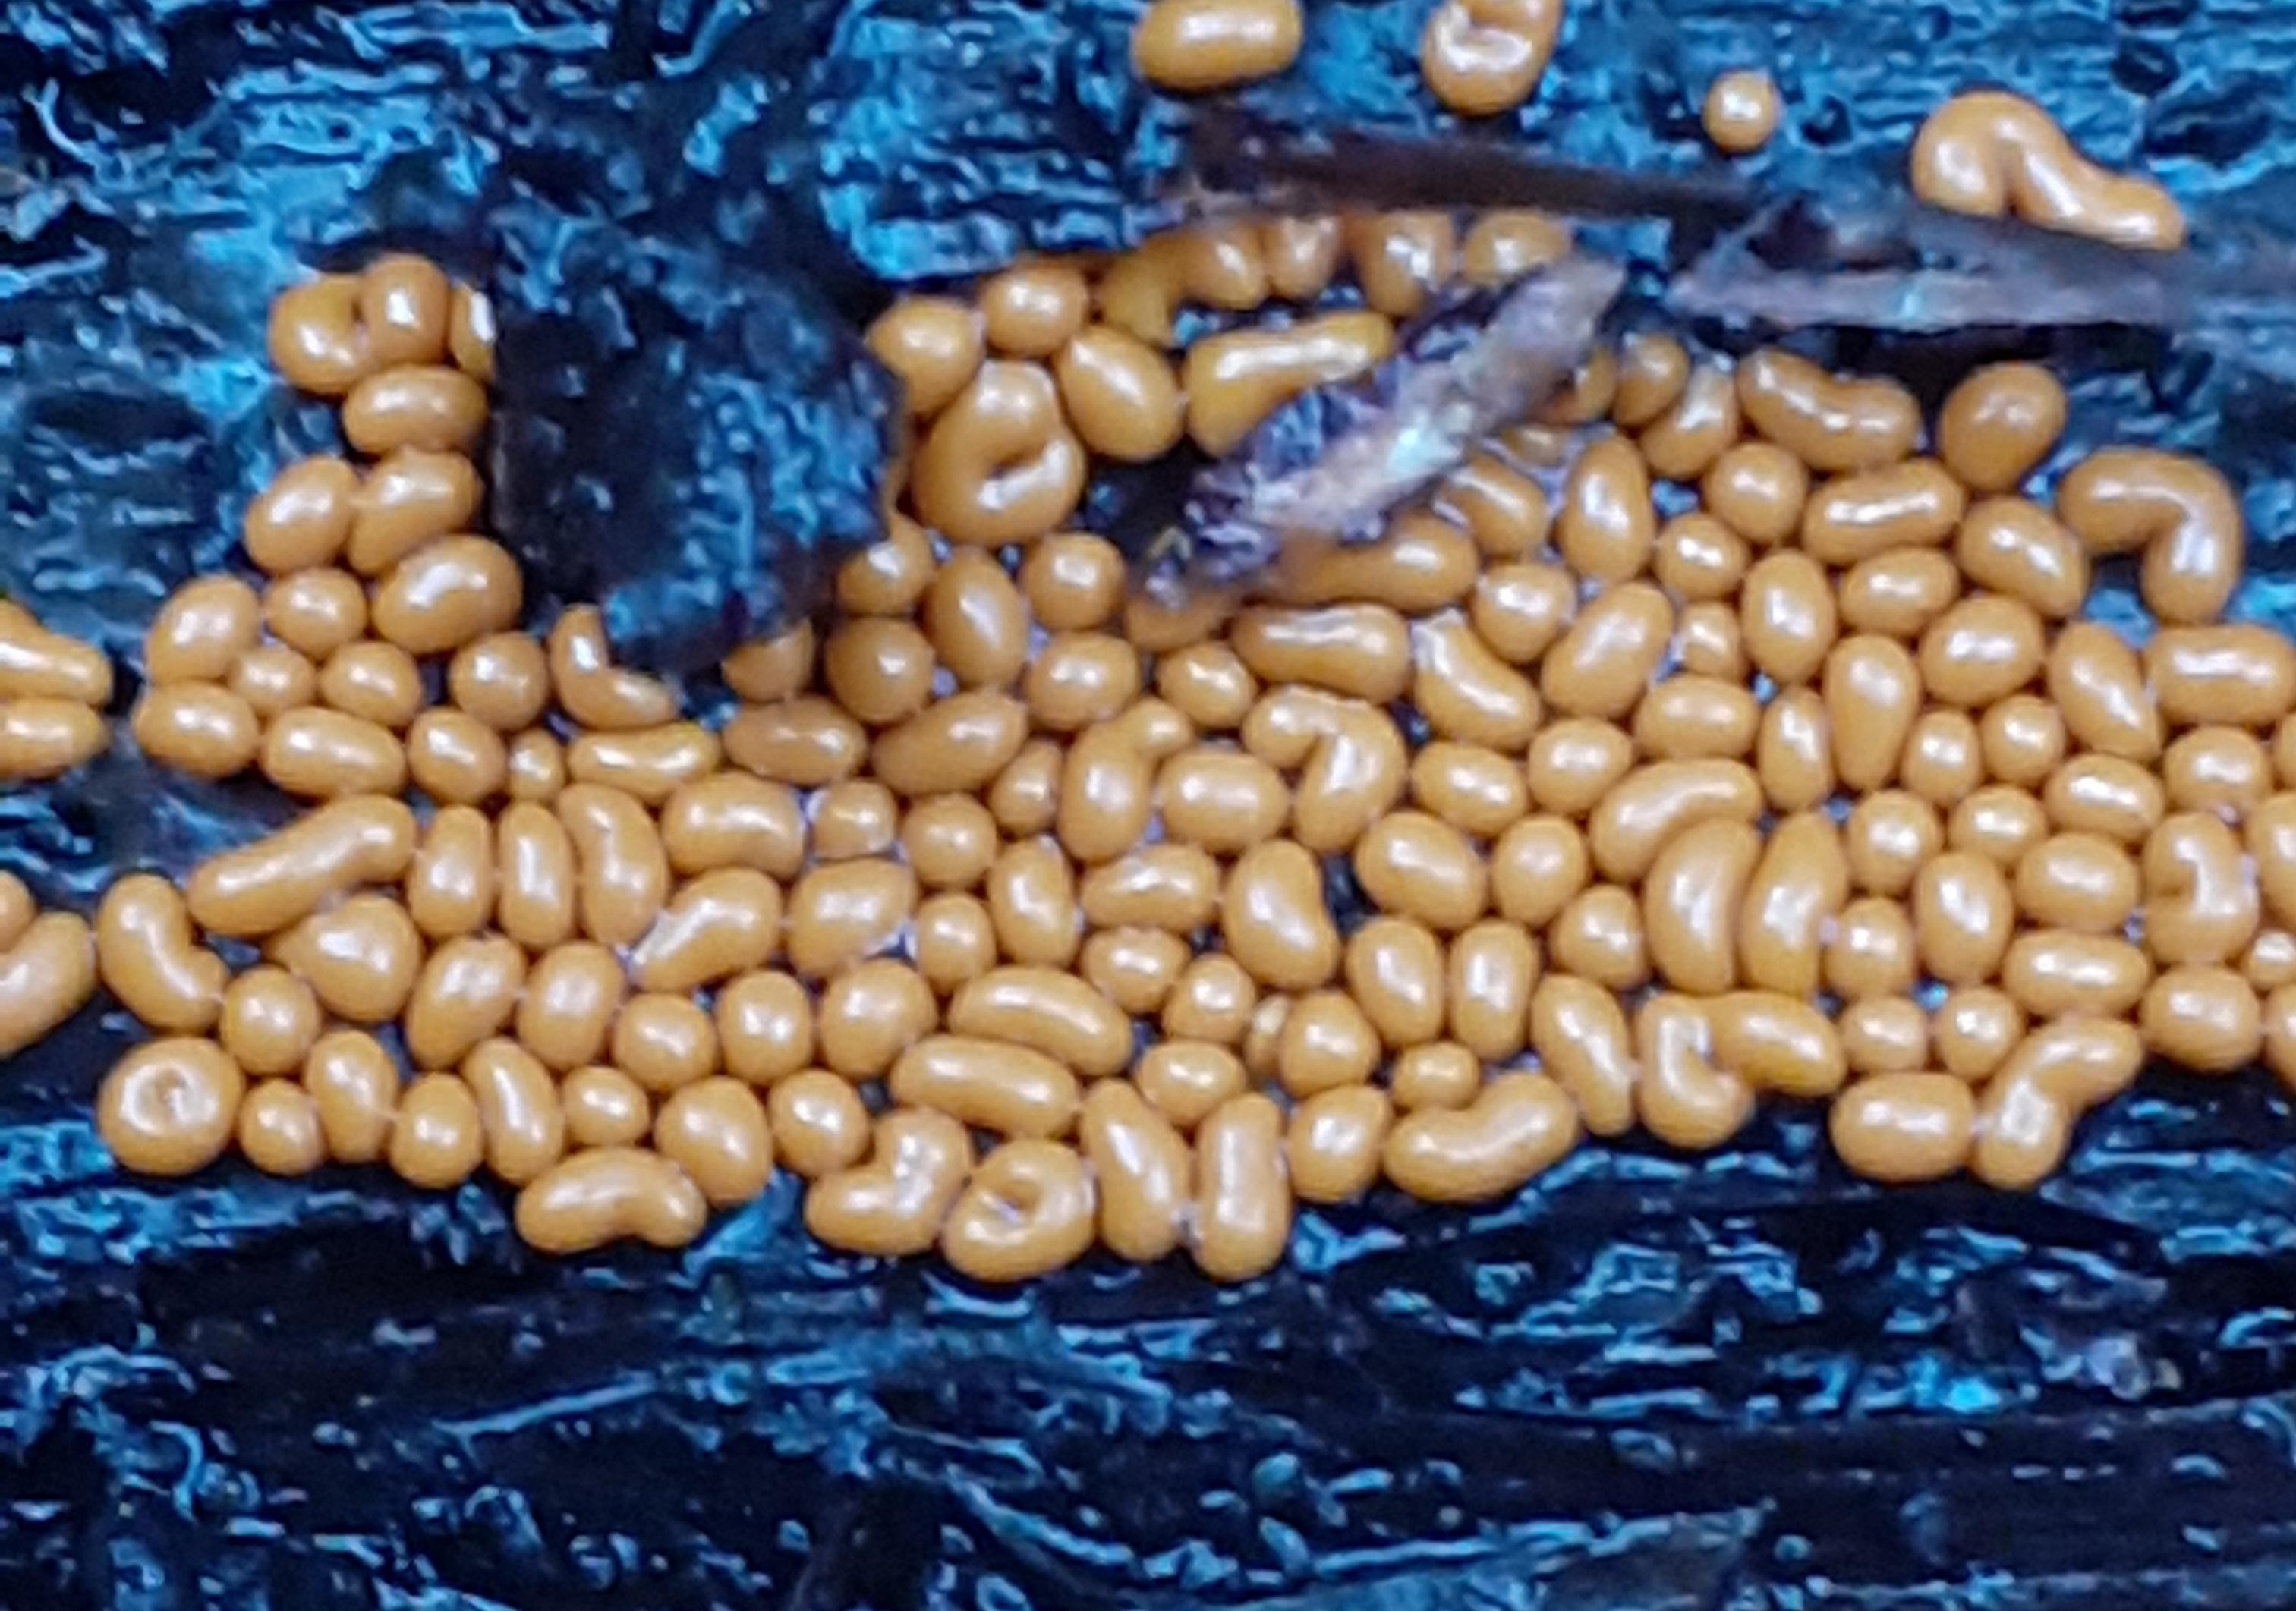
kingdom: Protozoa
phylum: Mycetozoa
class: Myxomycetes
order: Trichiales
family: Trichiaceae
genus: Trichia
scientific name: Trichia varia
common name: foranderlig hårbold
